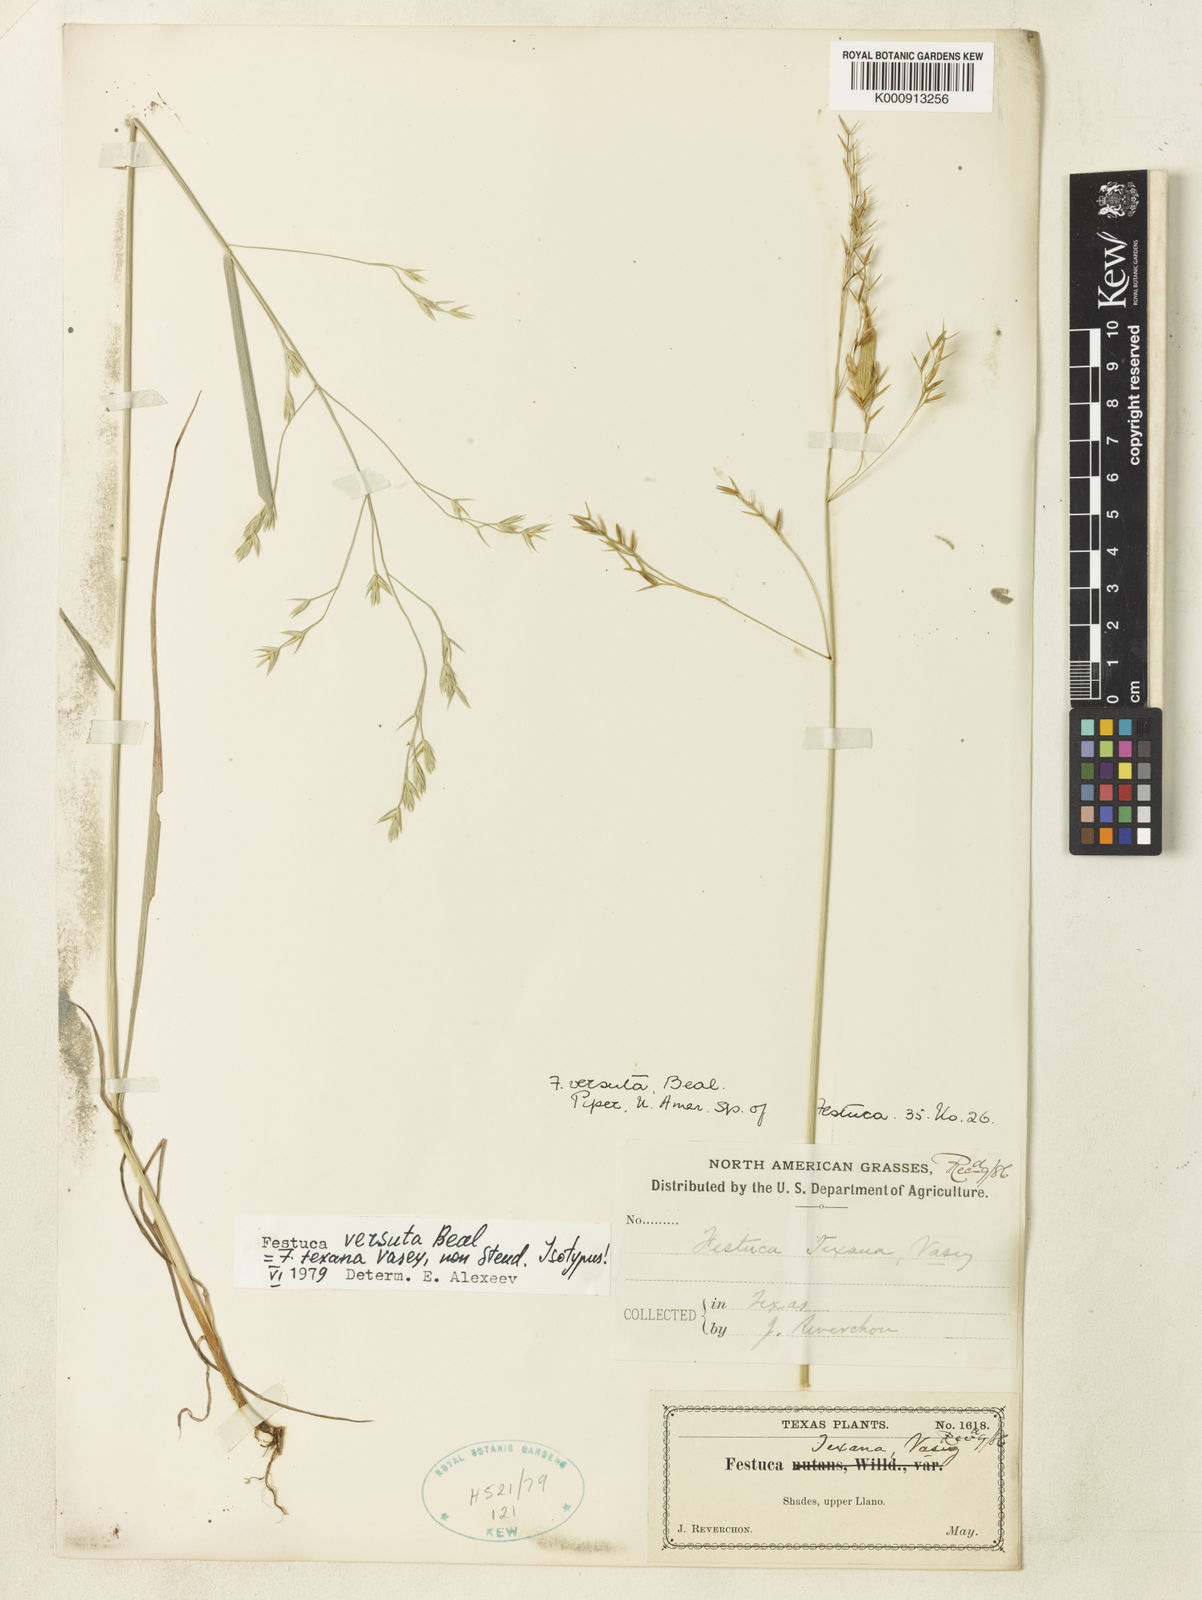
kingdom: Plantae
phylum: Tracheophyta
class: Liliopsida
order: Poales
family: Poaceae
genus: Festuca
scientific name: Festuca versuta
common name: Texas fescue
